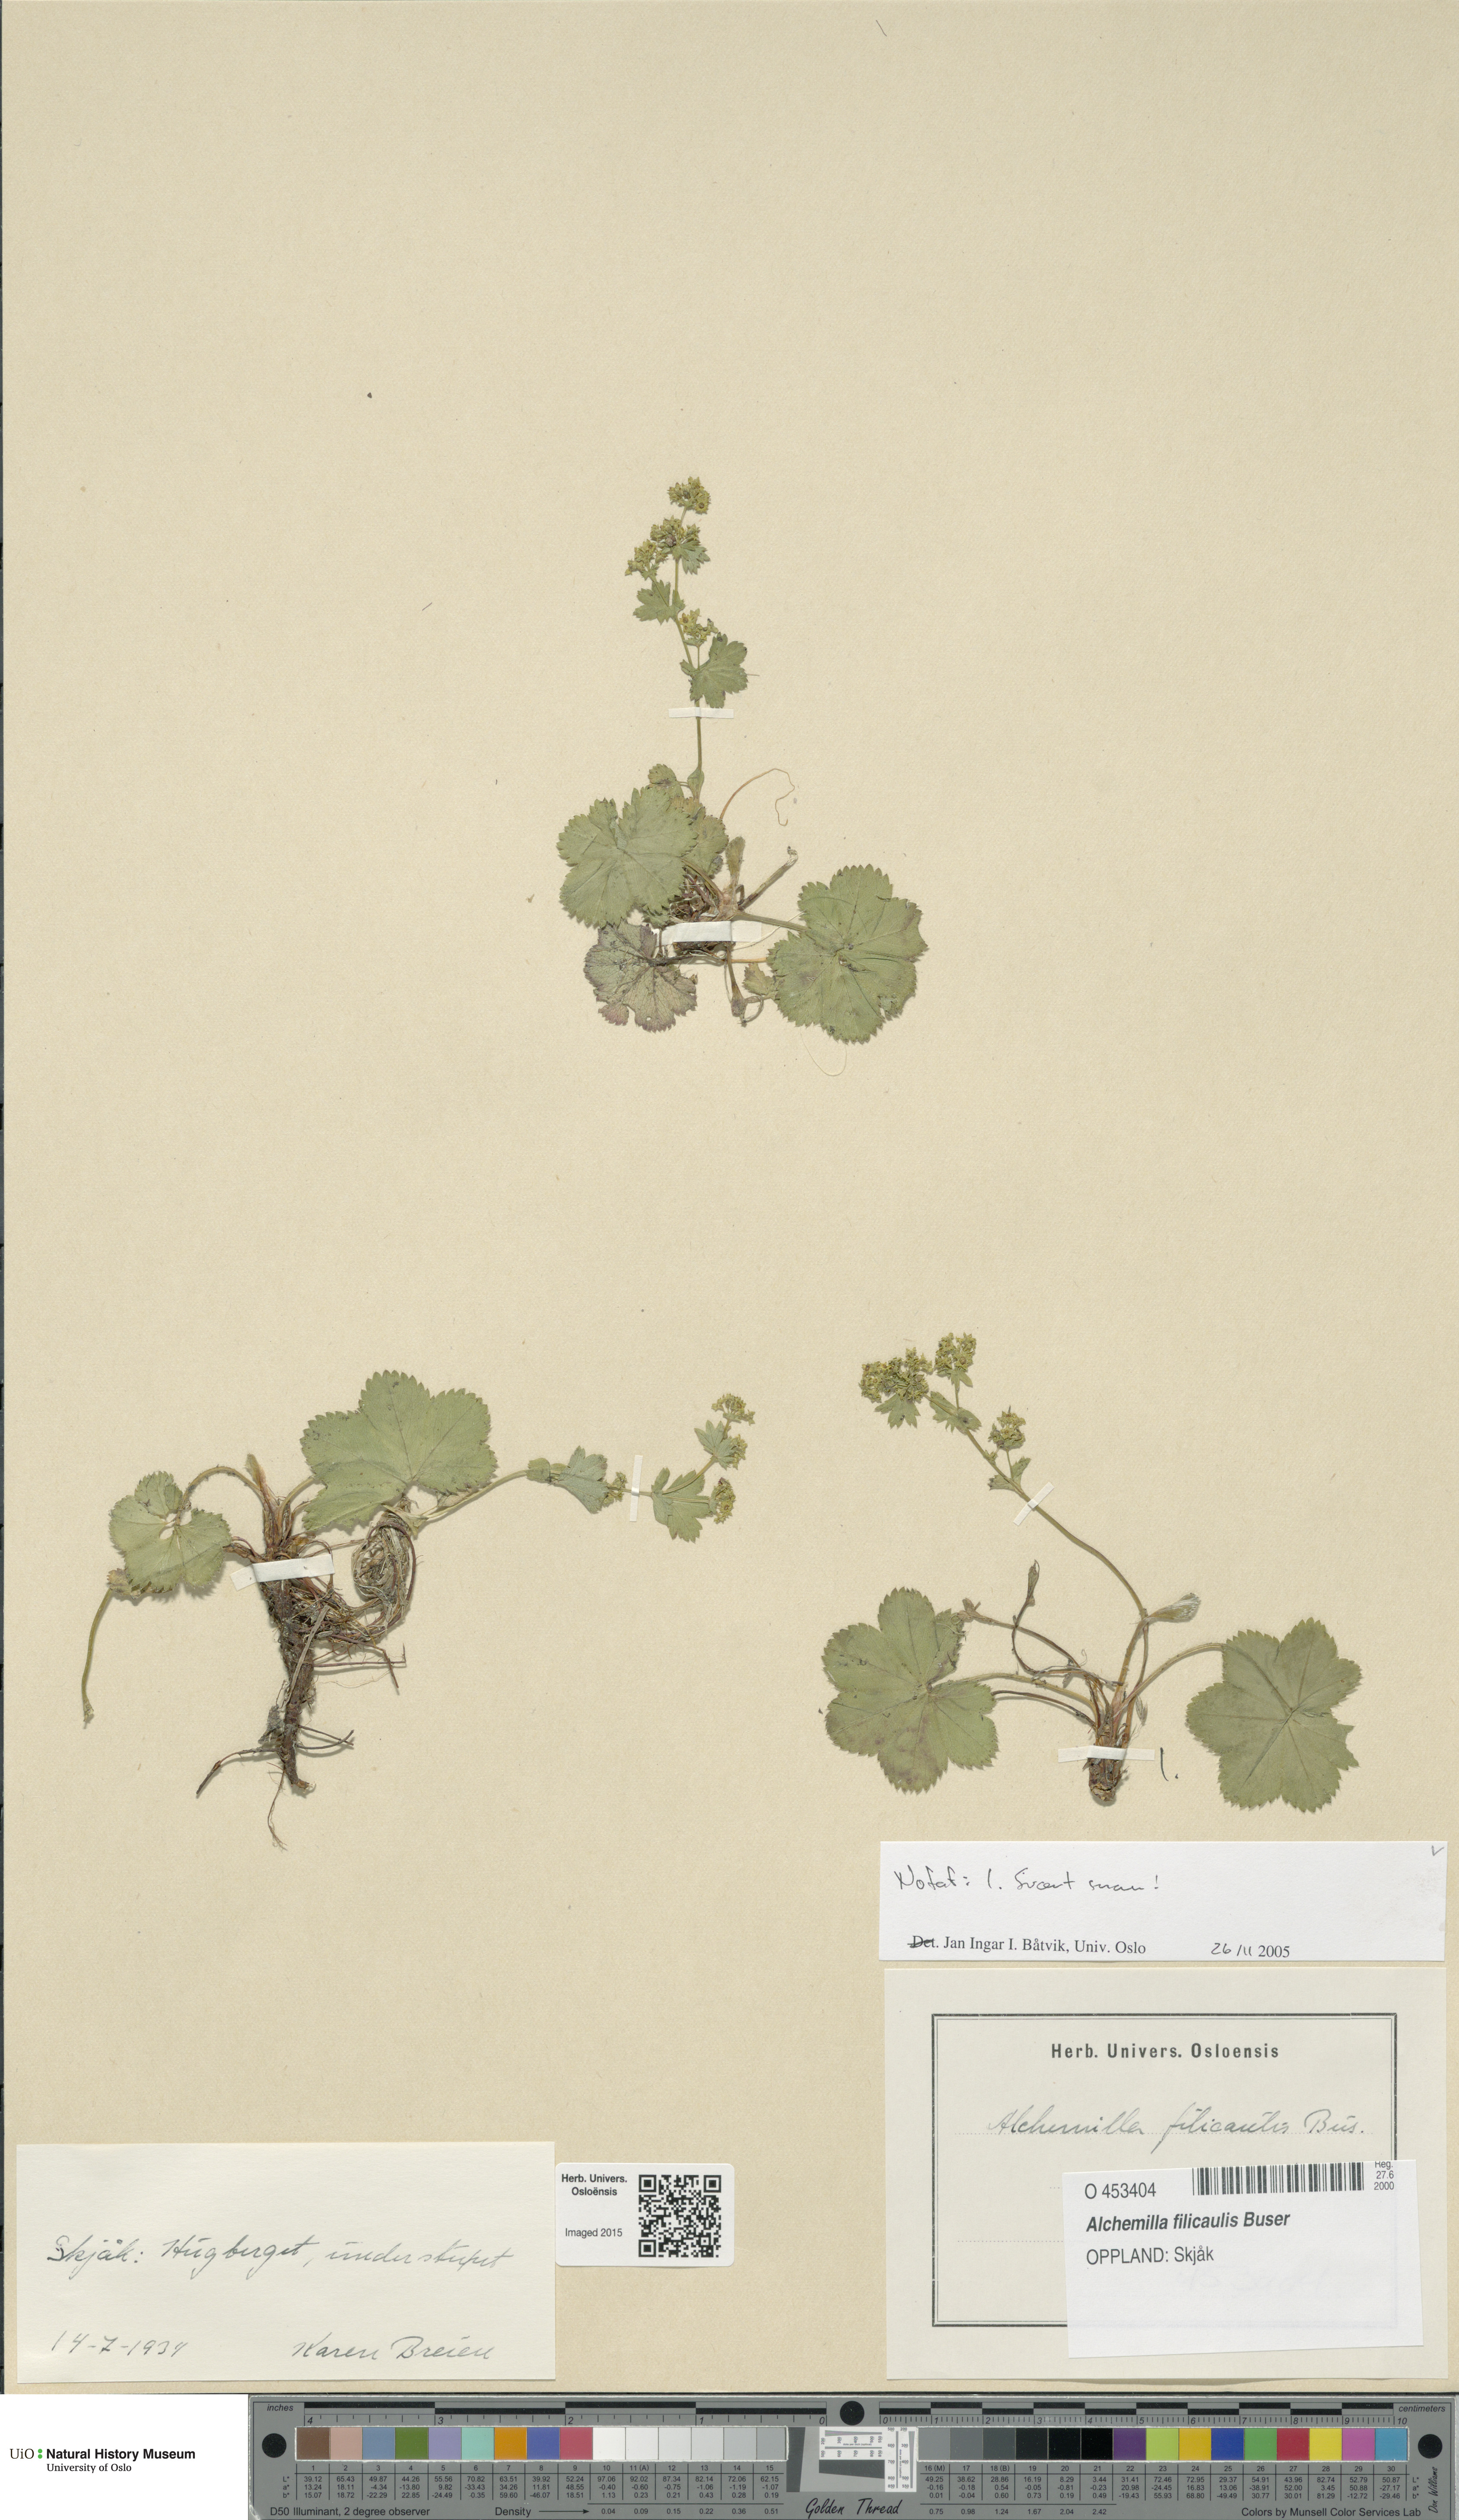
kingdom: Plantae
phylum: Tracheophyta
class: Magnoliopsida
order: Rosales
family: Rosaceae
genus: Alchemilla
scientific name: Alchemilla filicaulis
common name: Hairy lady's-mantle
